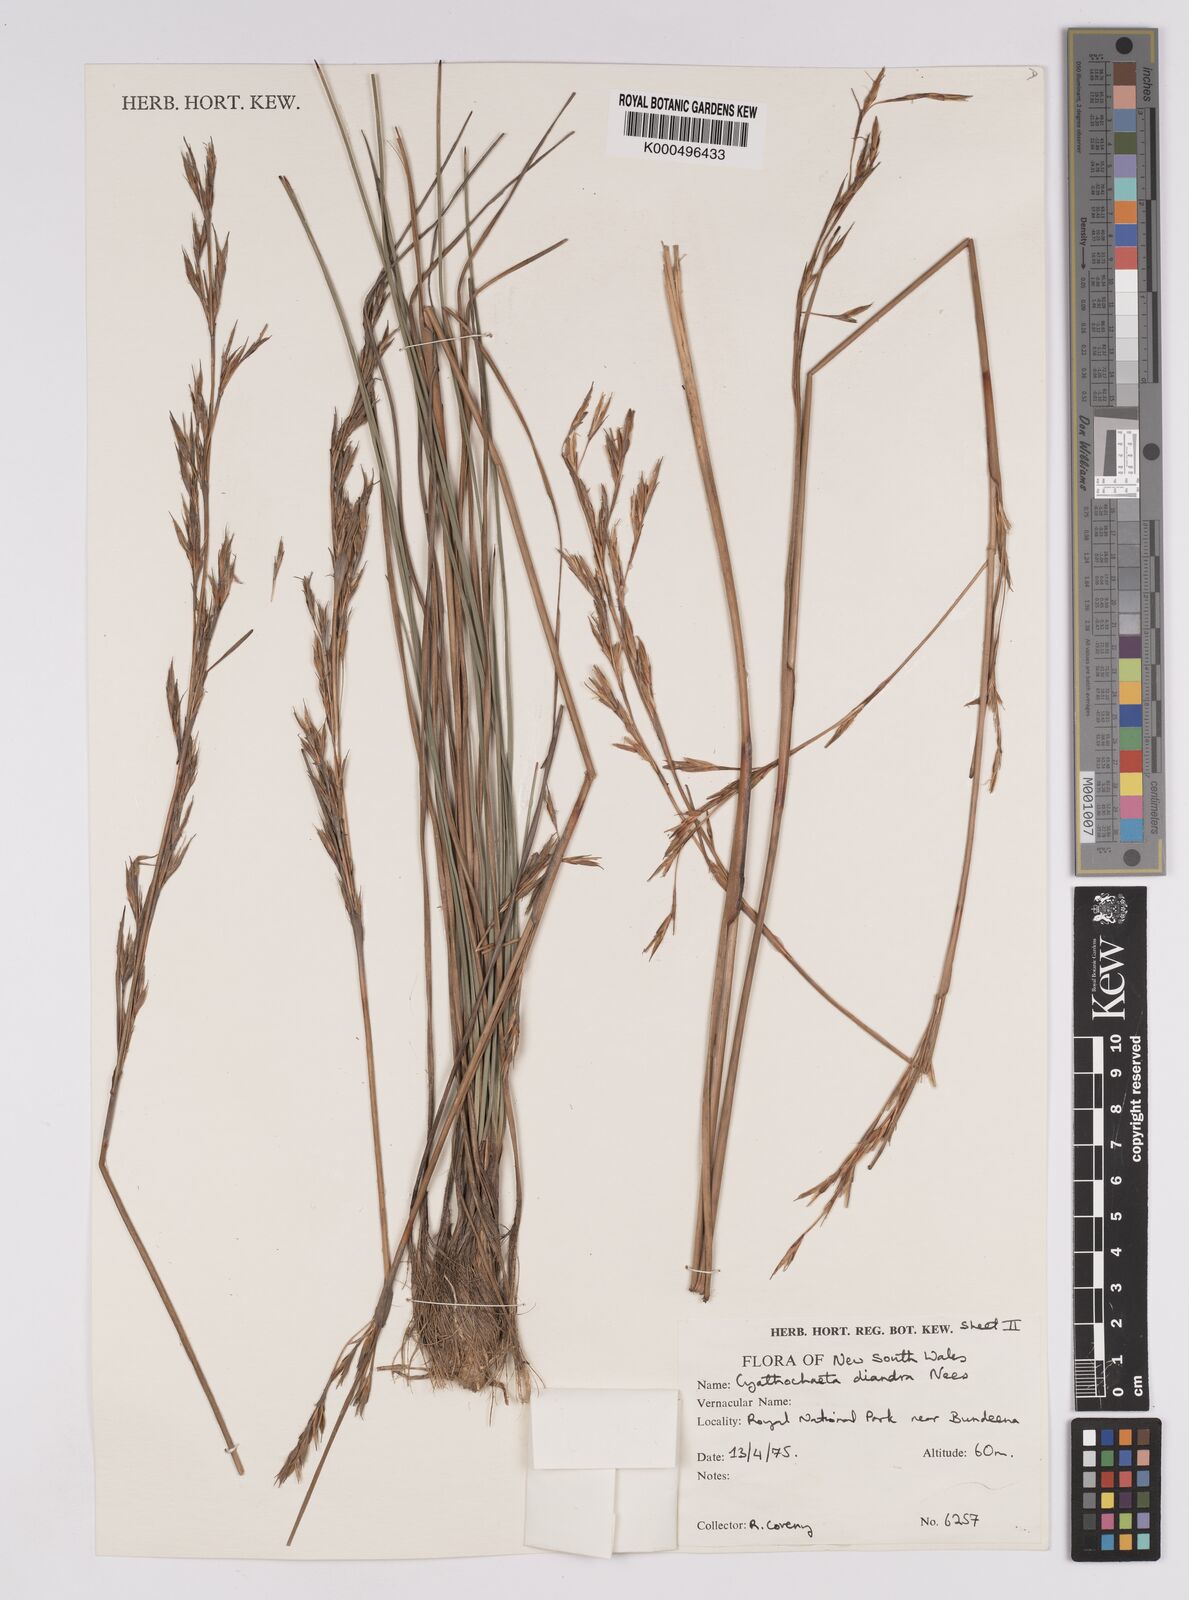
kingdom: Plantae
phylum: Tracheophyta
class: Liliopsida
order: Poales
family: Cyperaceae
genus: Cyathochaeta
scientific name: Cyathochaeta diandra
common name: Sheath rush
